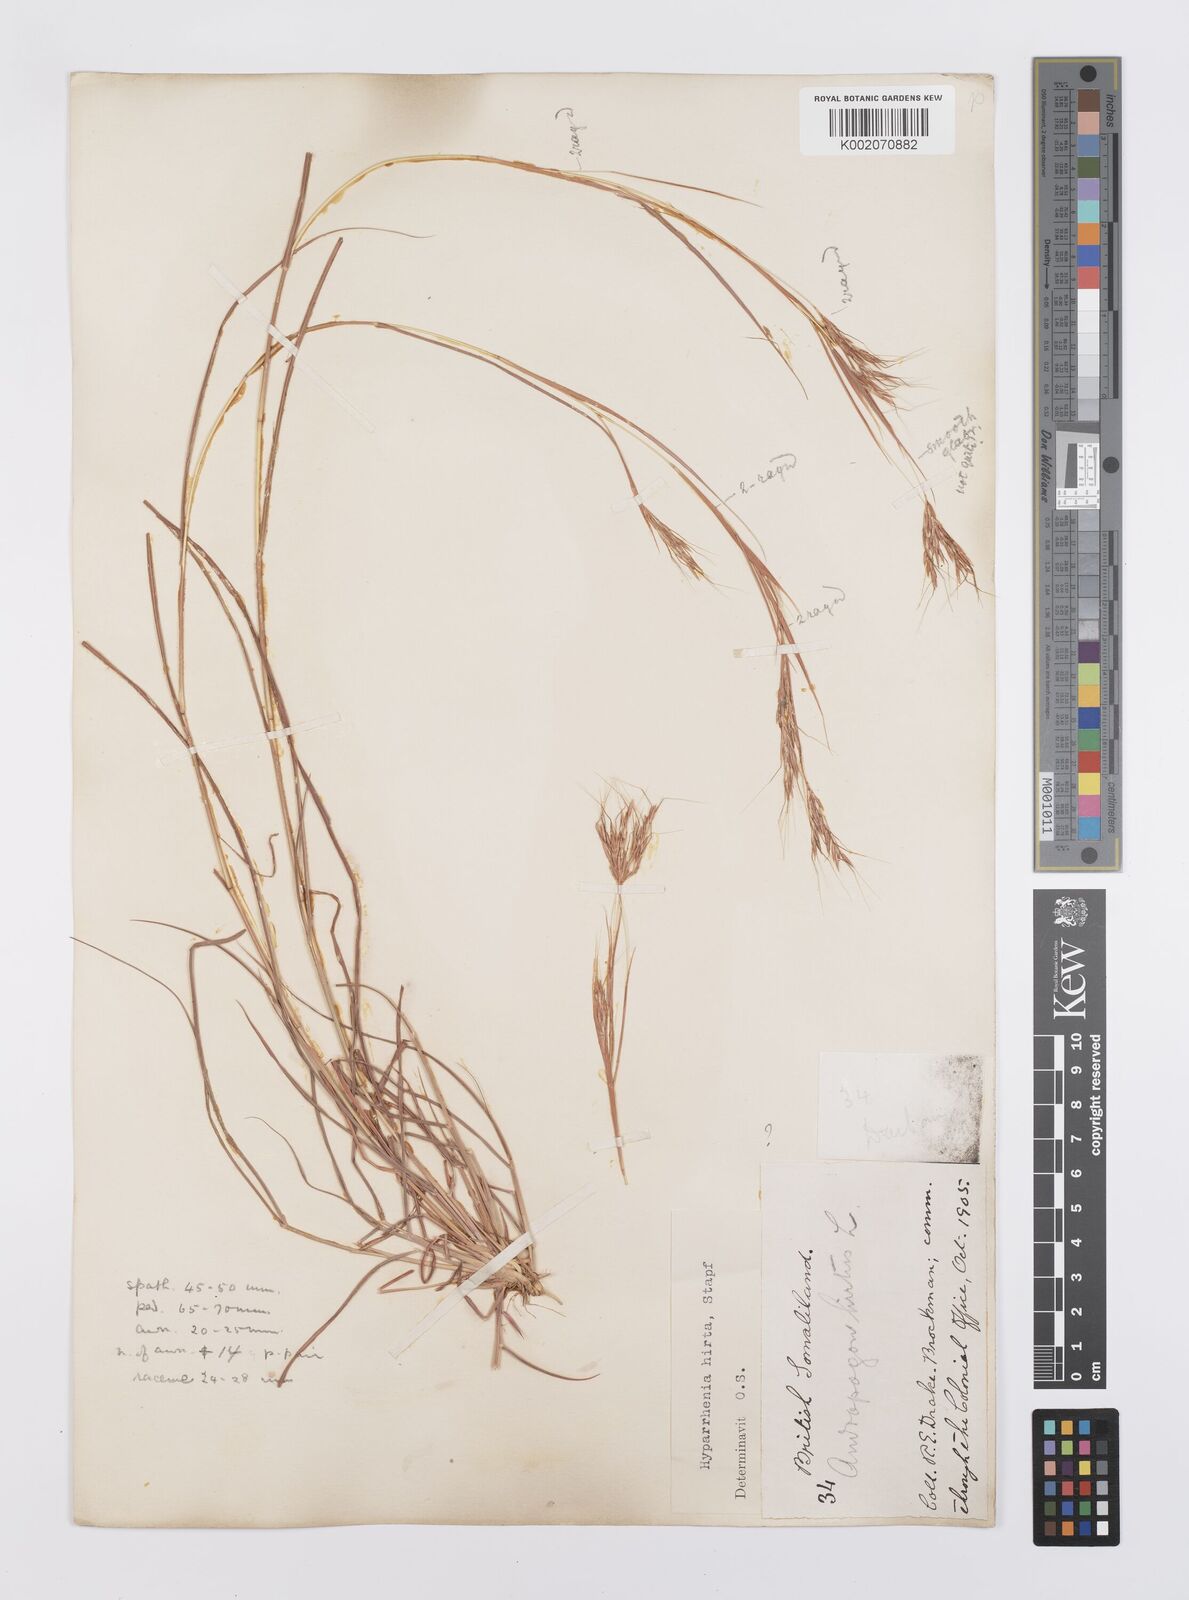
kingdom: Plantae
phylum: Tracheophyta
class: Liliopsida
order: Poales
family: Poaceae
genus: Hyparrhenia
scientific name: Hyparrhenia hirta
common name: Thatching grass
